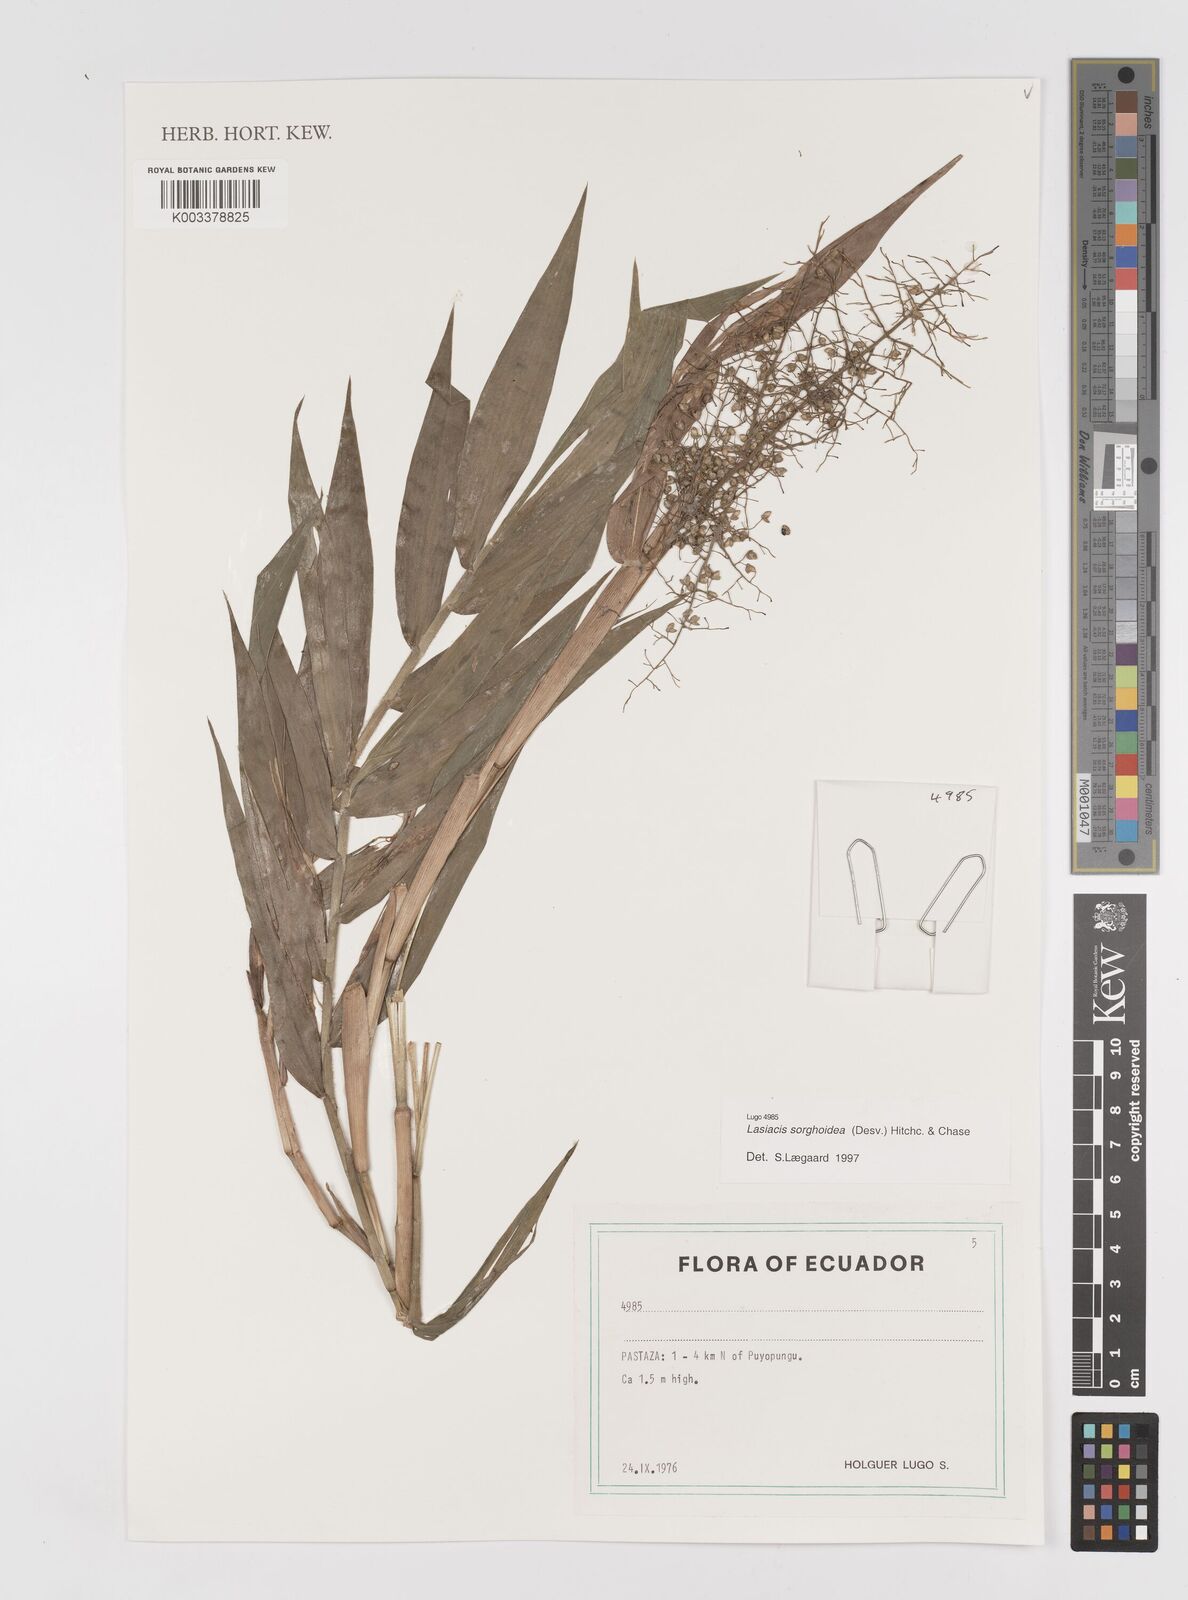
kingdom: Plantae
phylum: Tracheophyta
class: Liliopsida
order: Poales
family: Poaceae
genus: Lasiacis
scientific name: Lasiacis maculata
